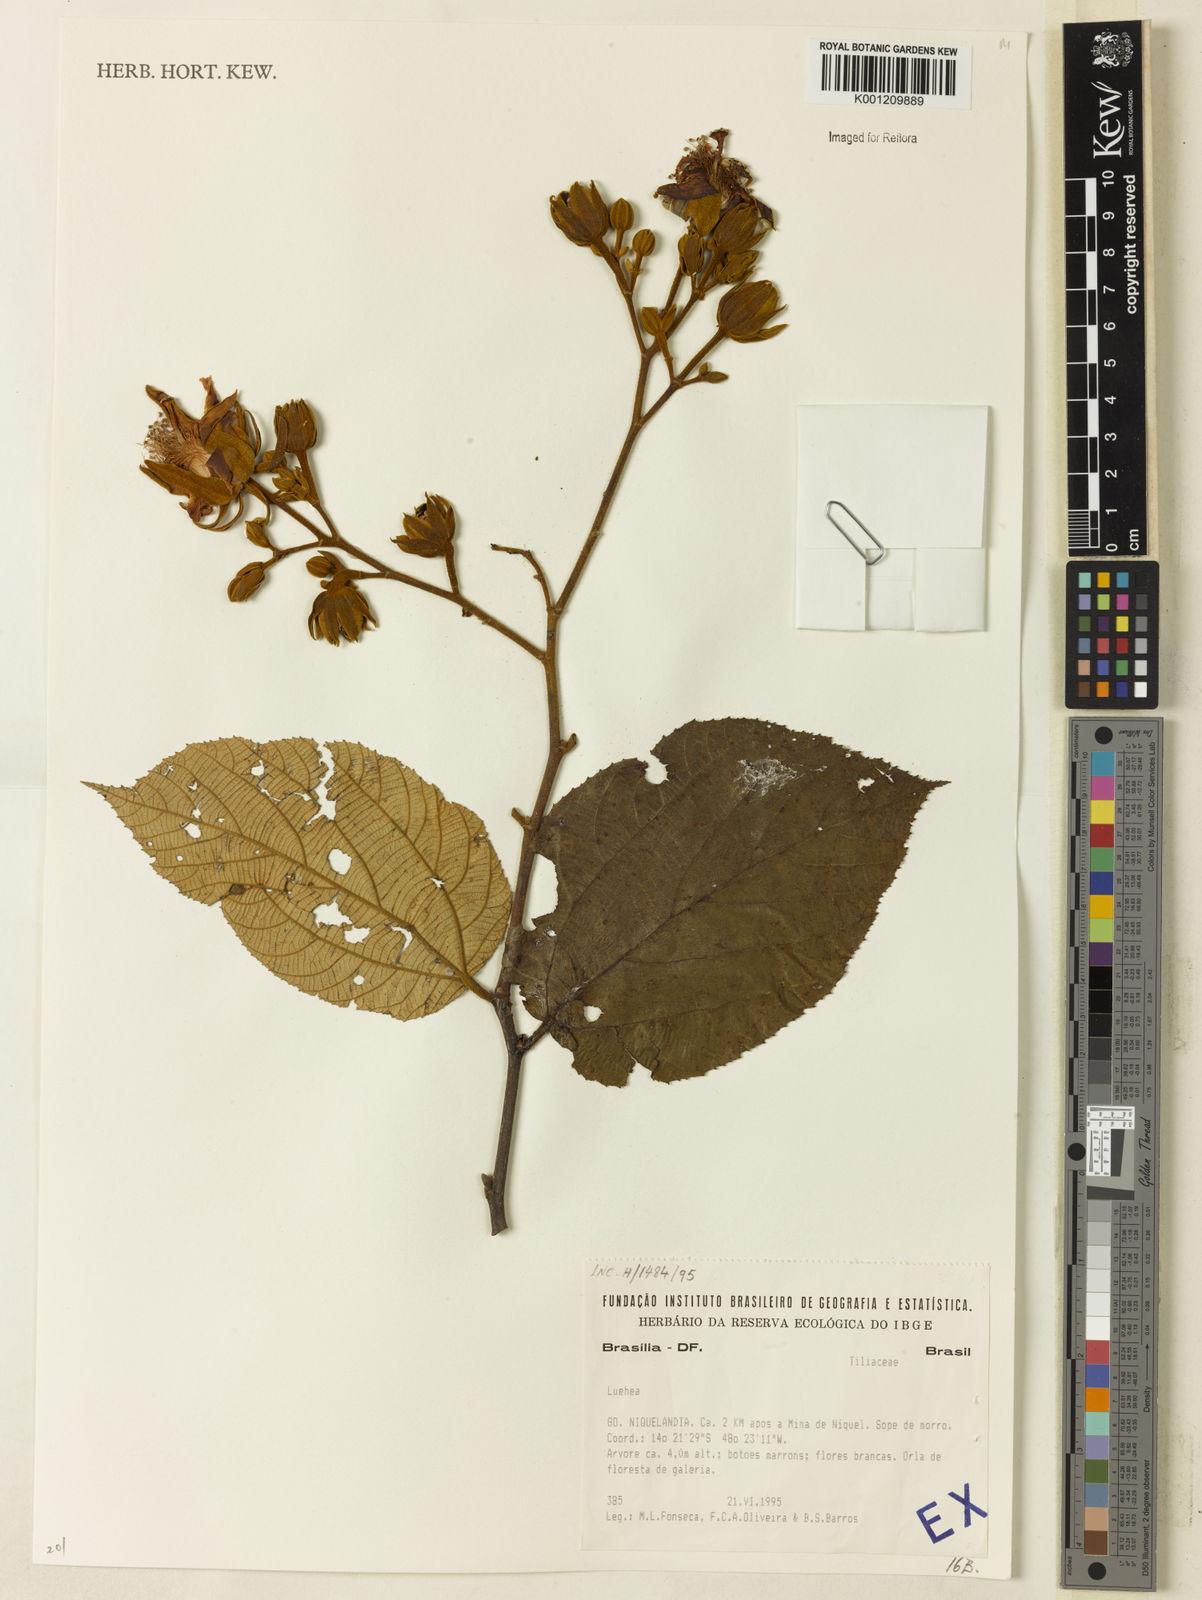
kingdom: Plantae
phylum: Tracheophyta
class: Magnoliopsida
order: Malvales
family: Malvaceae
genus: Luehea
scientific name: Luehea
